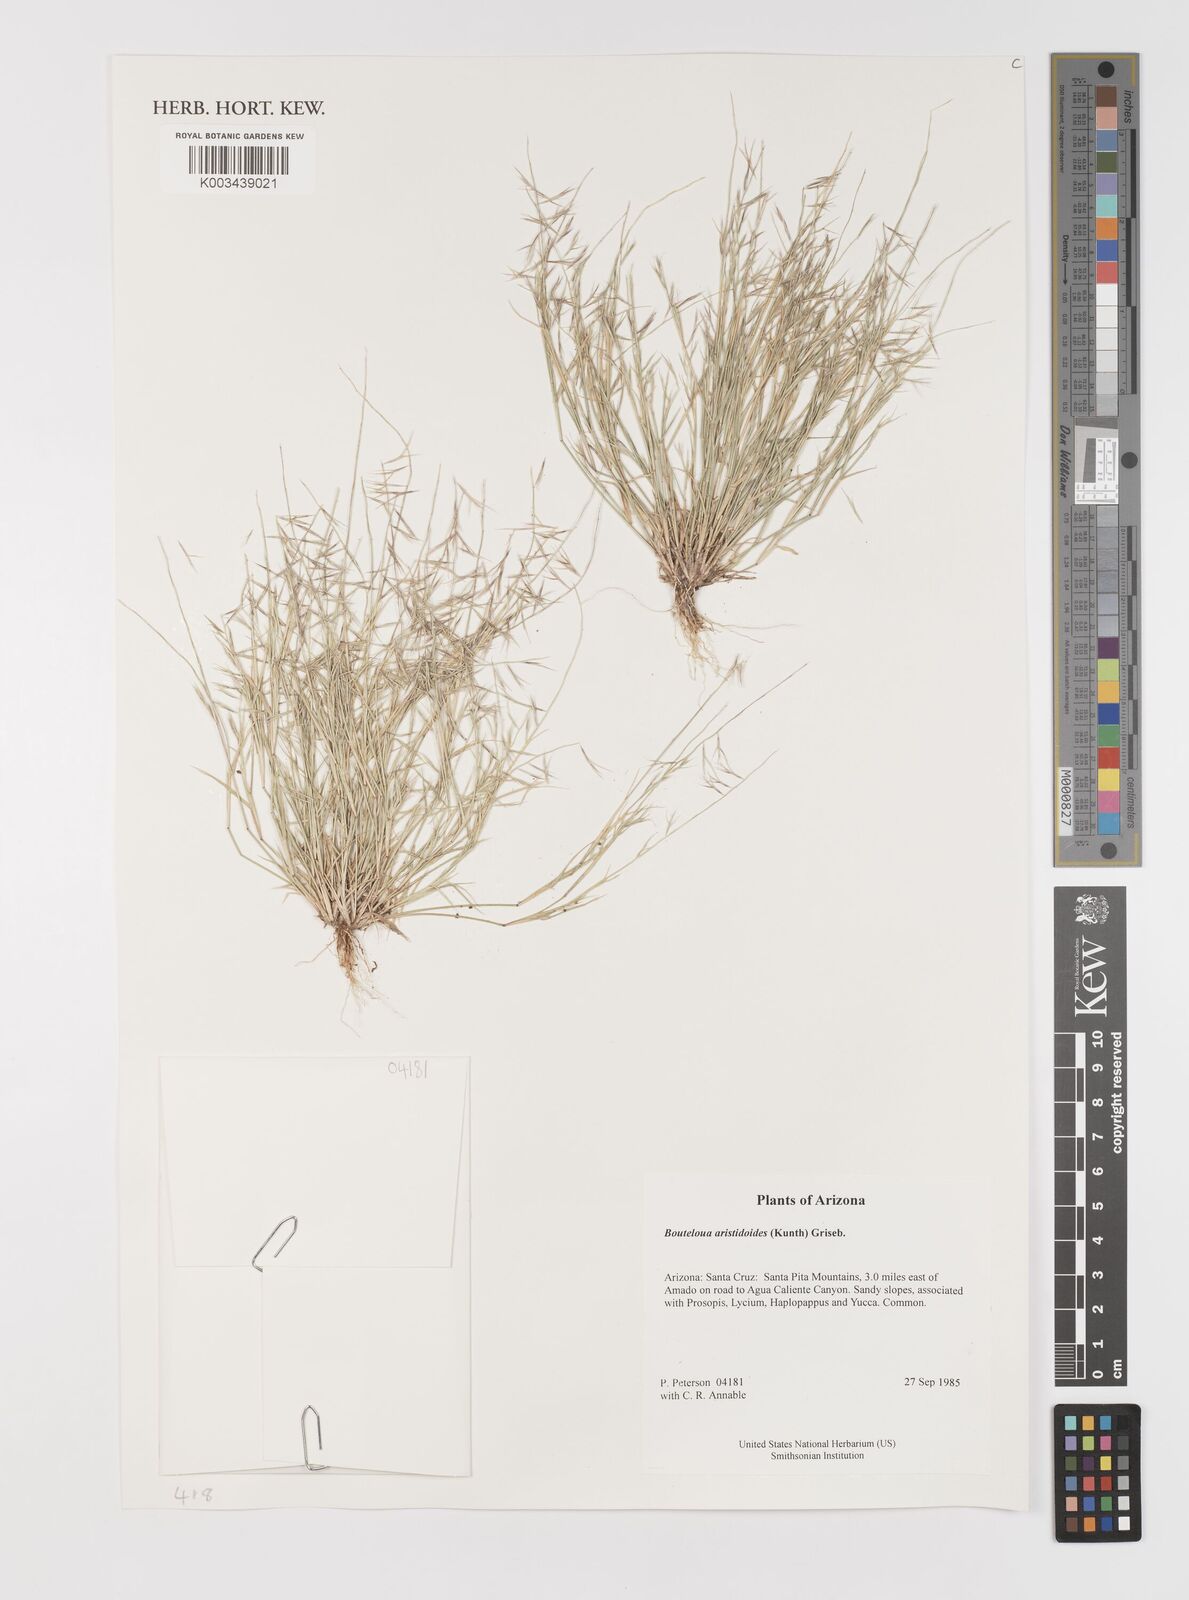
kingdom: Plantae
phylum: Tracheophyta
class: Liliopsida
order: Poales
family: Poaceae
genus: Bouteloua
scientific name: Bouteloua aristidoides
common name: Needle grama
